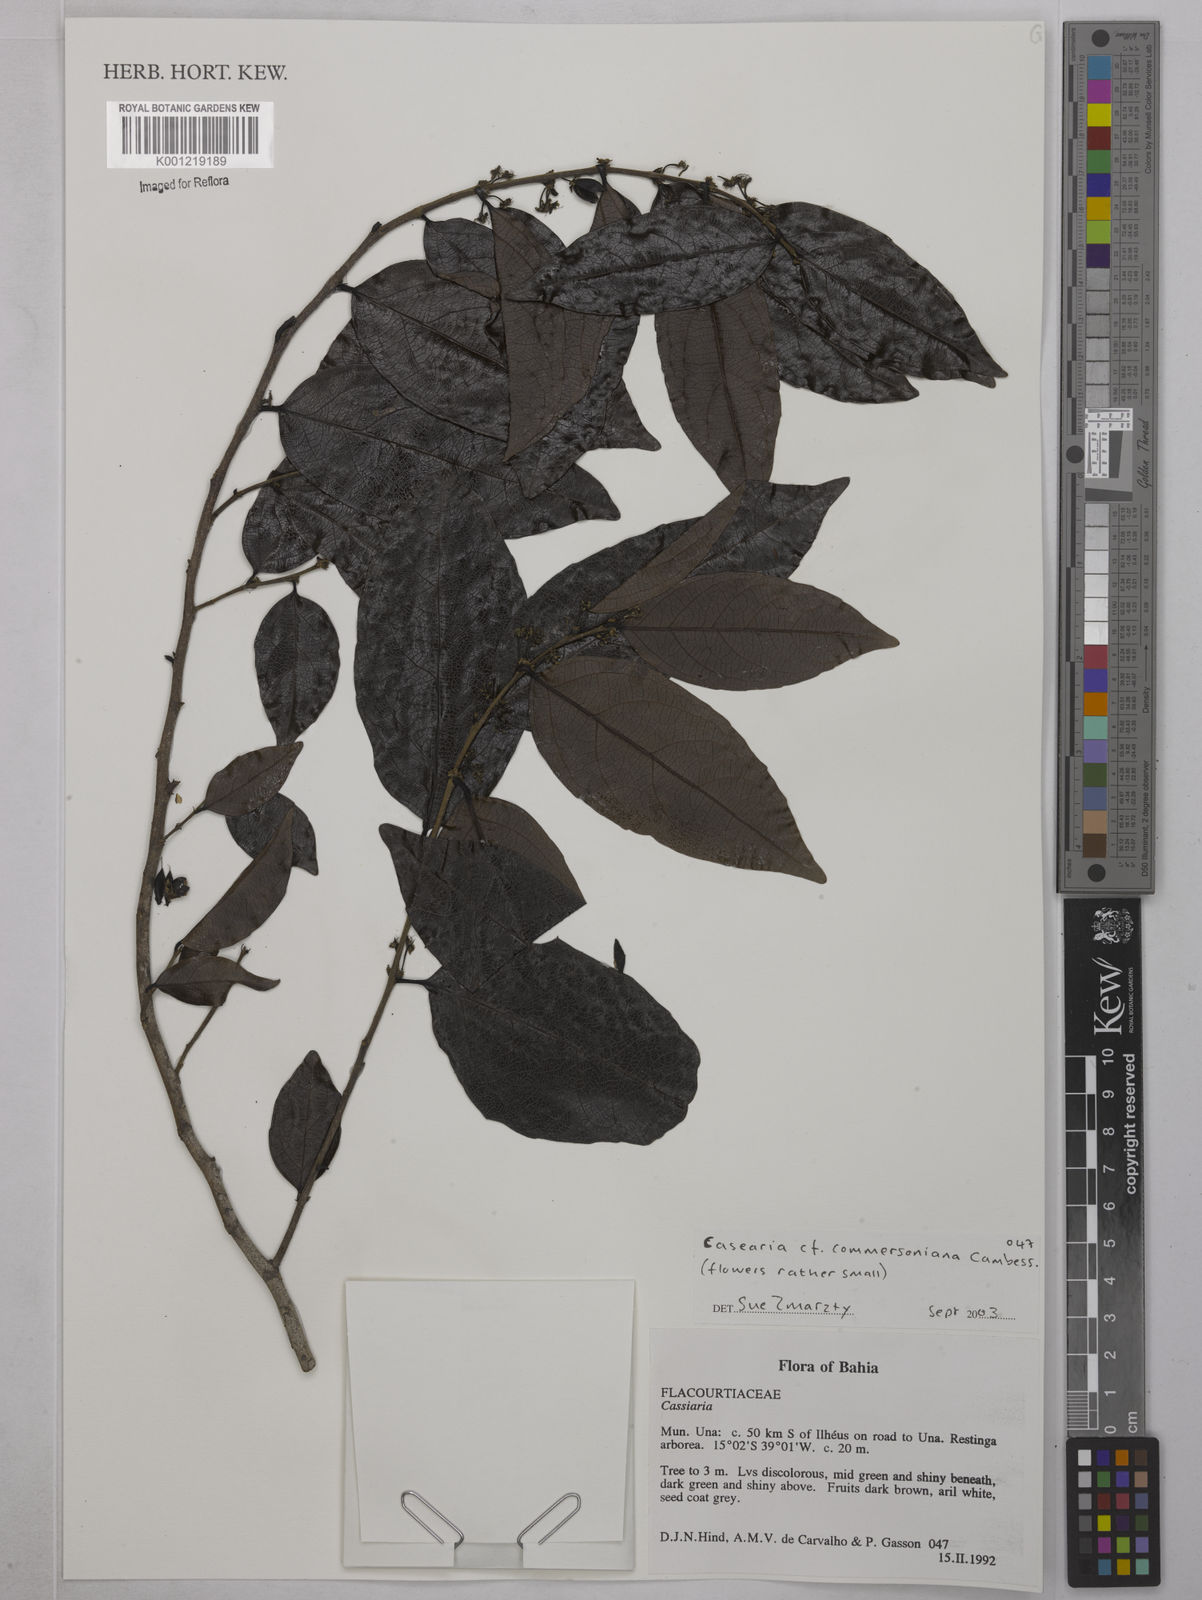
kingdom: Plantae
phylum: Tracheophyta
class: Magnoliopsida
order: Malpighiales
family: Salicaceae
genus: Piparea
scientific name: Piparea dentata
